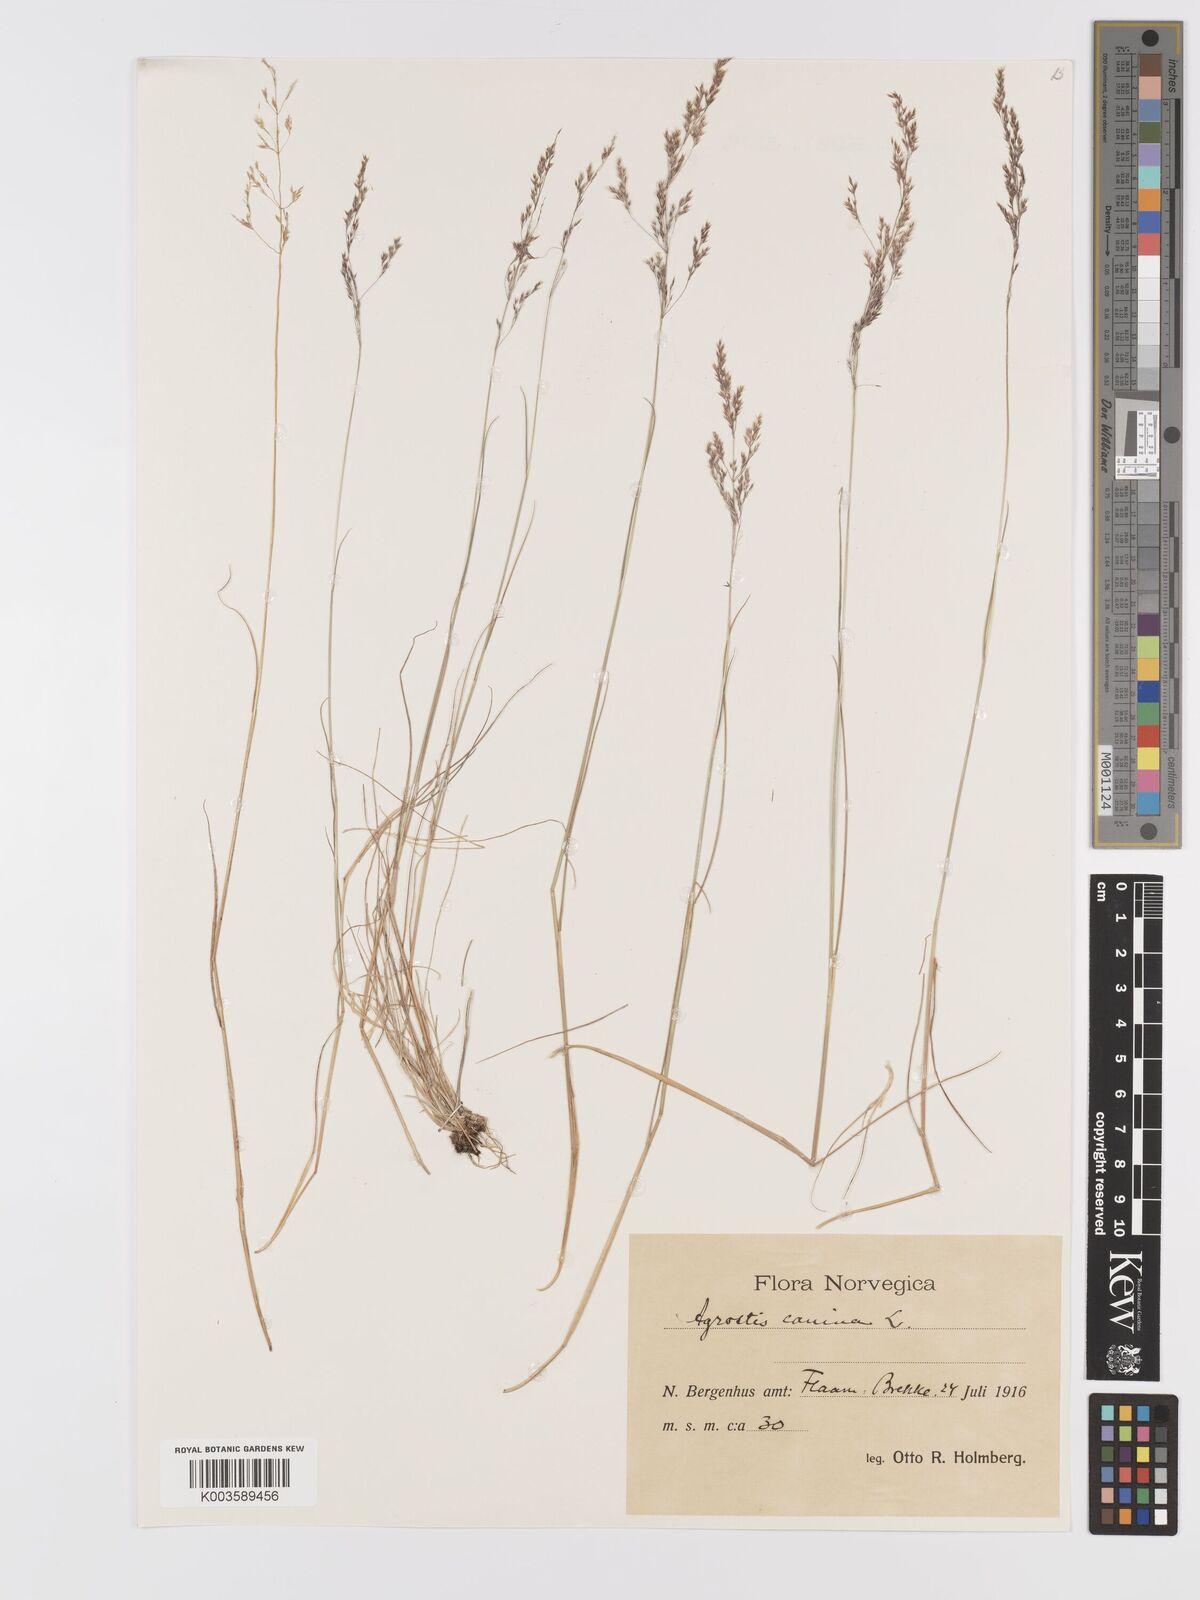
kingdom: Plantae
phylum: Tracheophyta
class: Liliopsida
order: Poales
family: Poaceae
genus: Agrostis
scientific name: Agrostis canina
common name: Velvet bent
